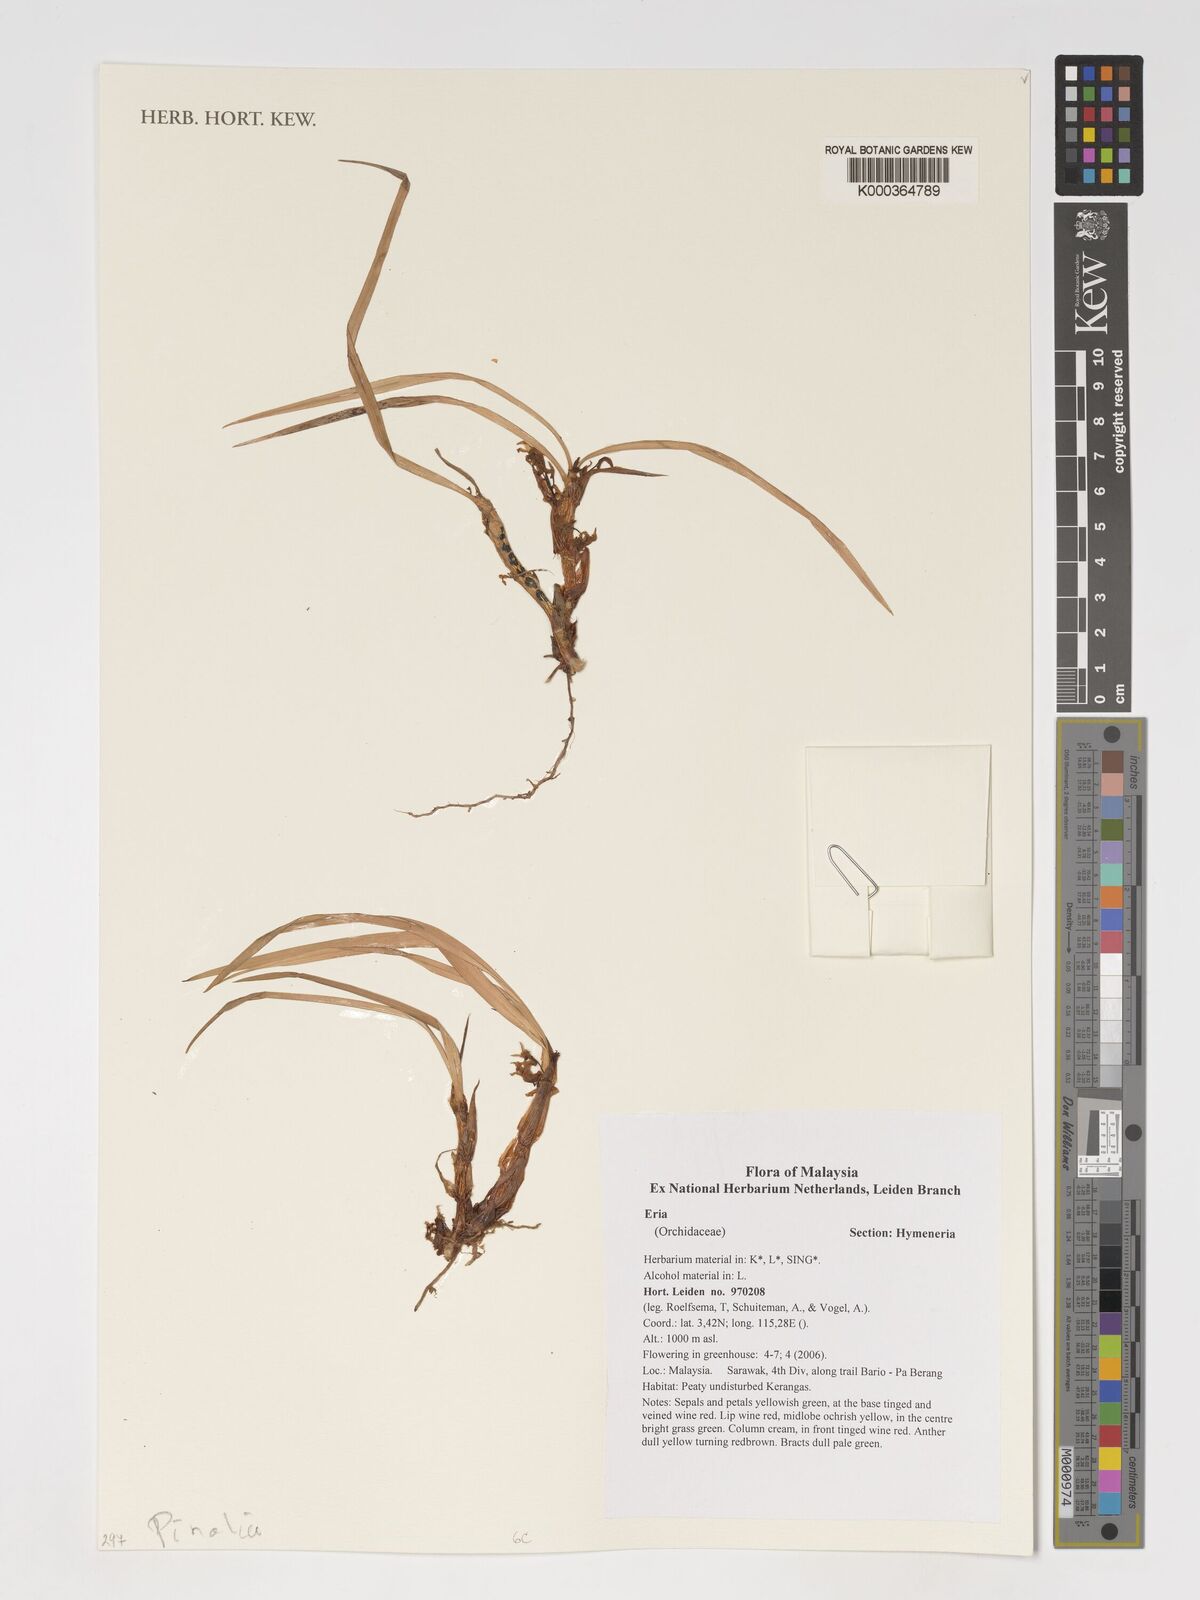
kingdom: Plantae
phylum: Tracheophyta
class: Liliopsida
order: Asparagales
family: Orchidaceae
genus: Eria
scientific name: Eria
